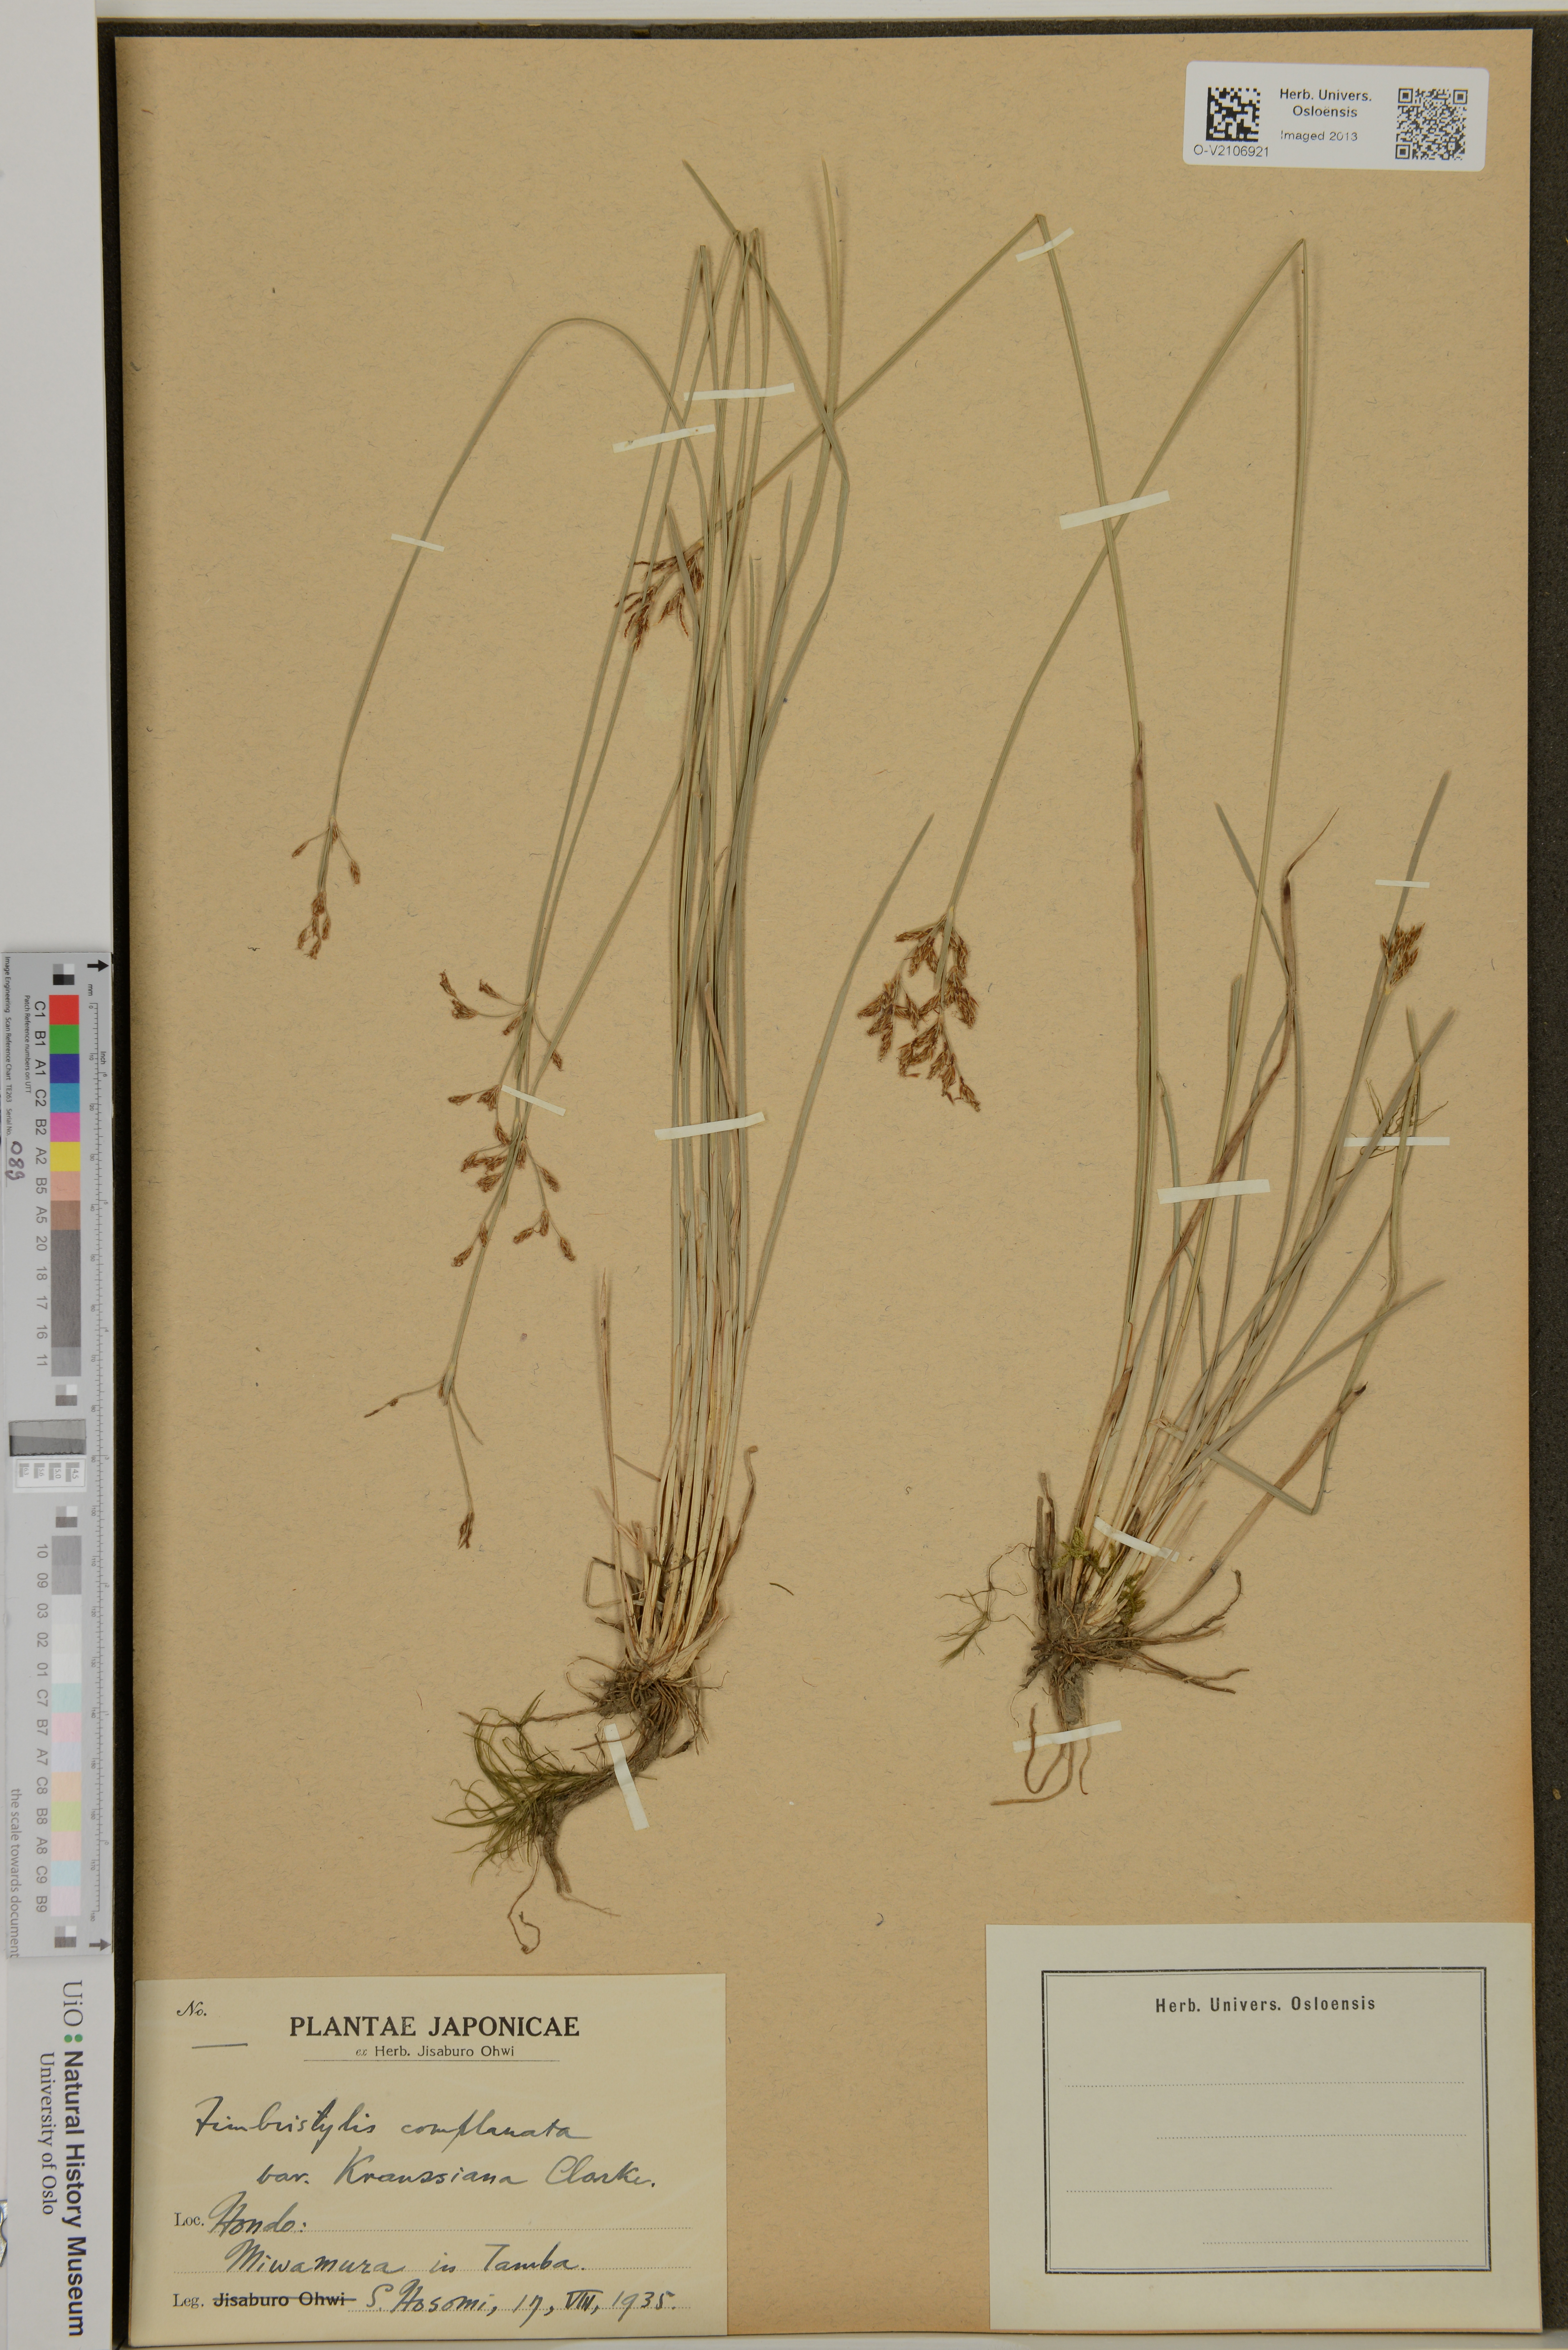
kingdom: Plantae
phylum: Tracheophyta
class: Liliopsida
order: Poales
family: Cyperaceae
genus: Fimbristylis
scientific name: Fimbristylis complanata
